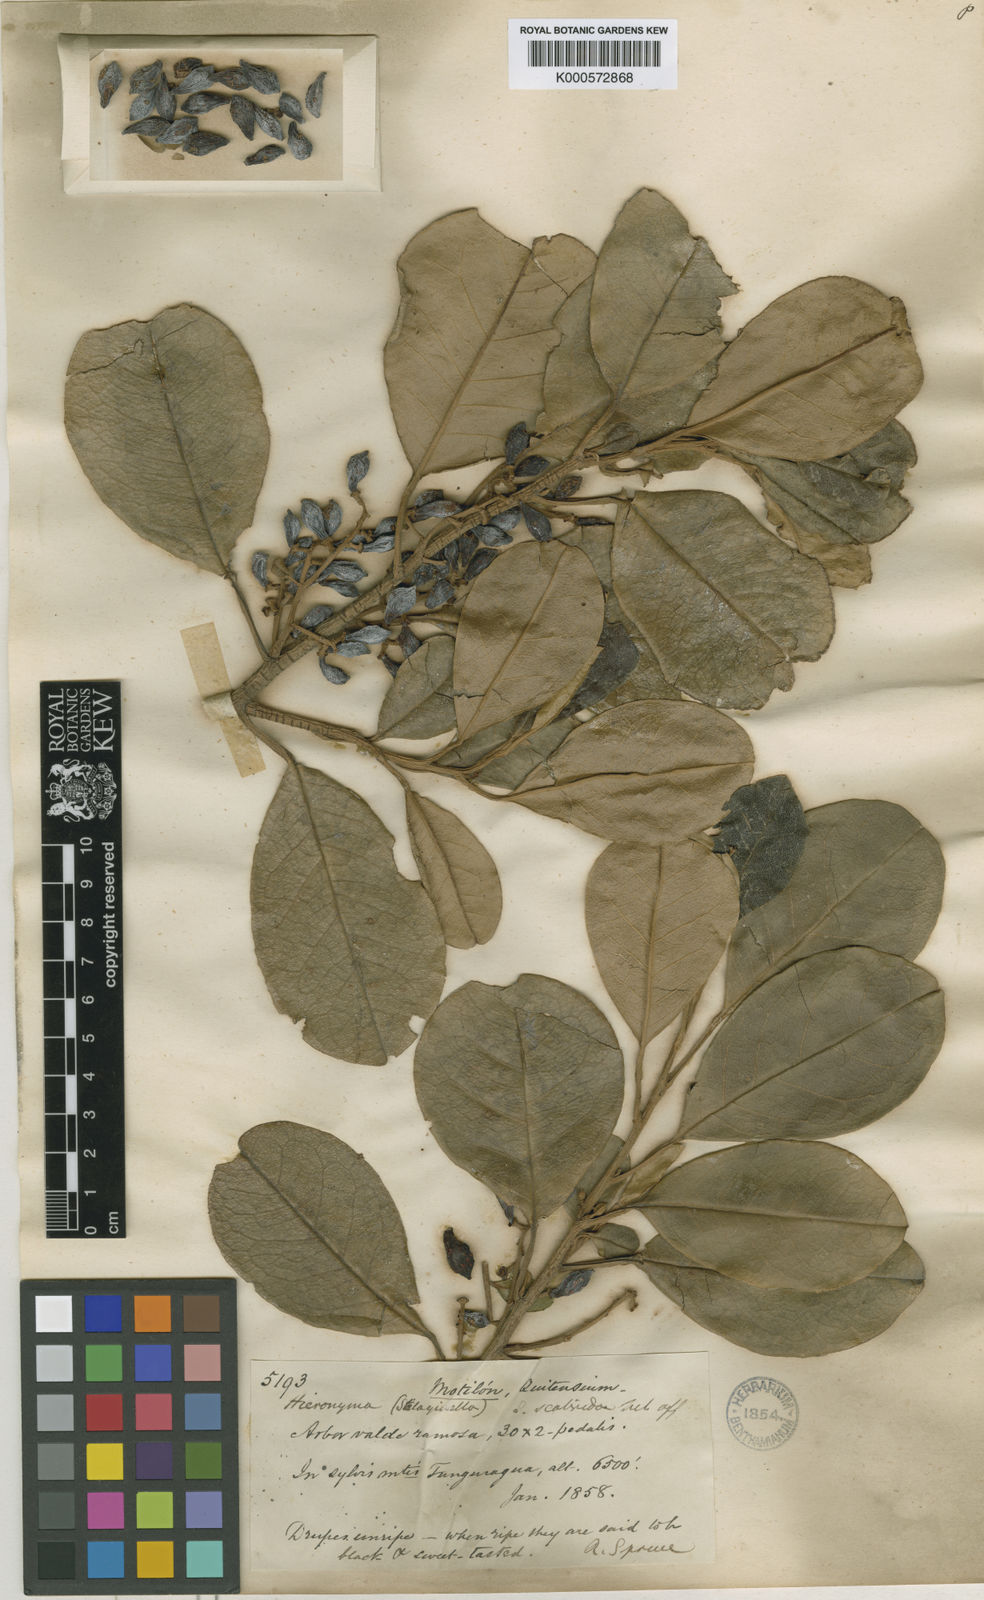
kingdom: Plantae
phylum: Tracheophyta
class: Magnoliopsida
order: Malpighiales
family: Phyllanthaceae
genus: Hieronyma
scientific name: Hieronyma
